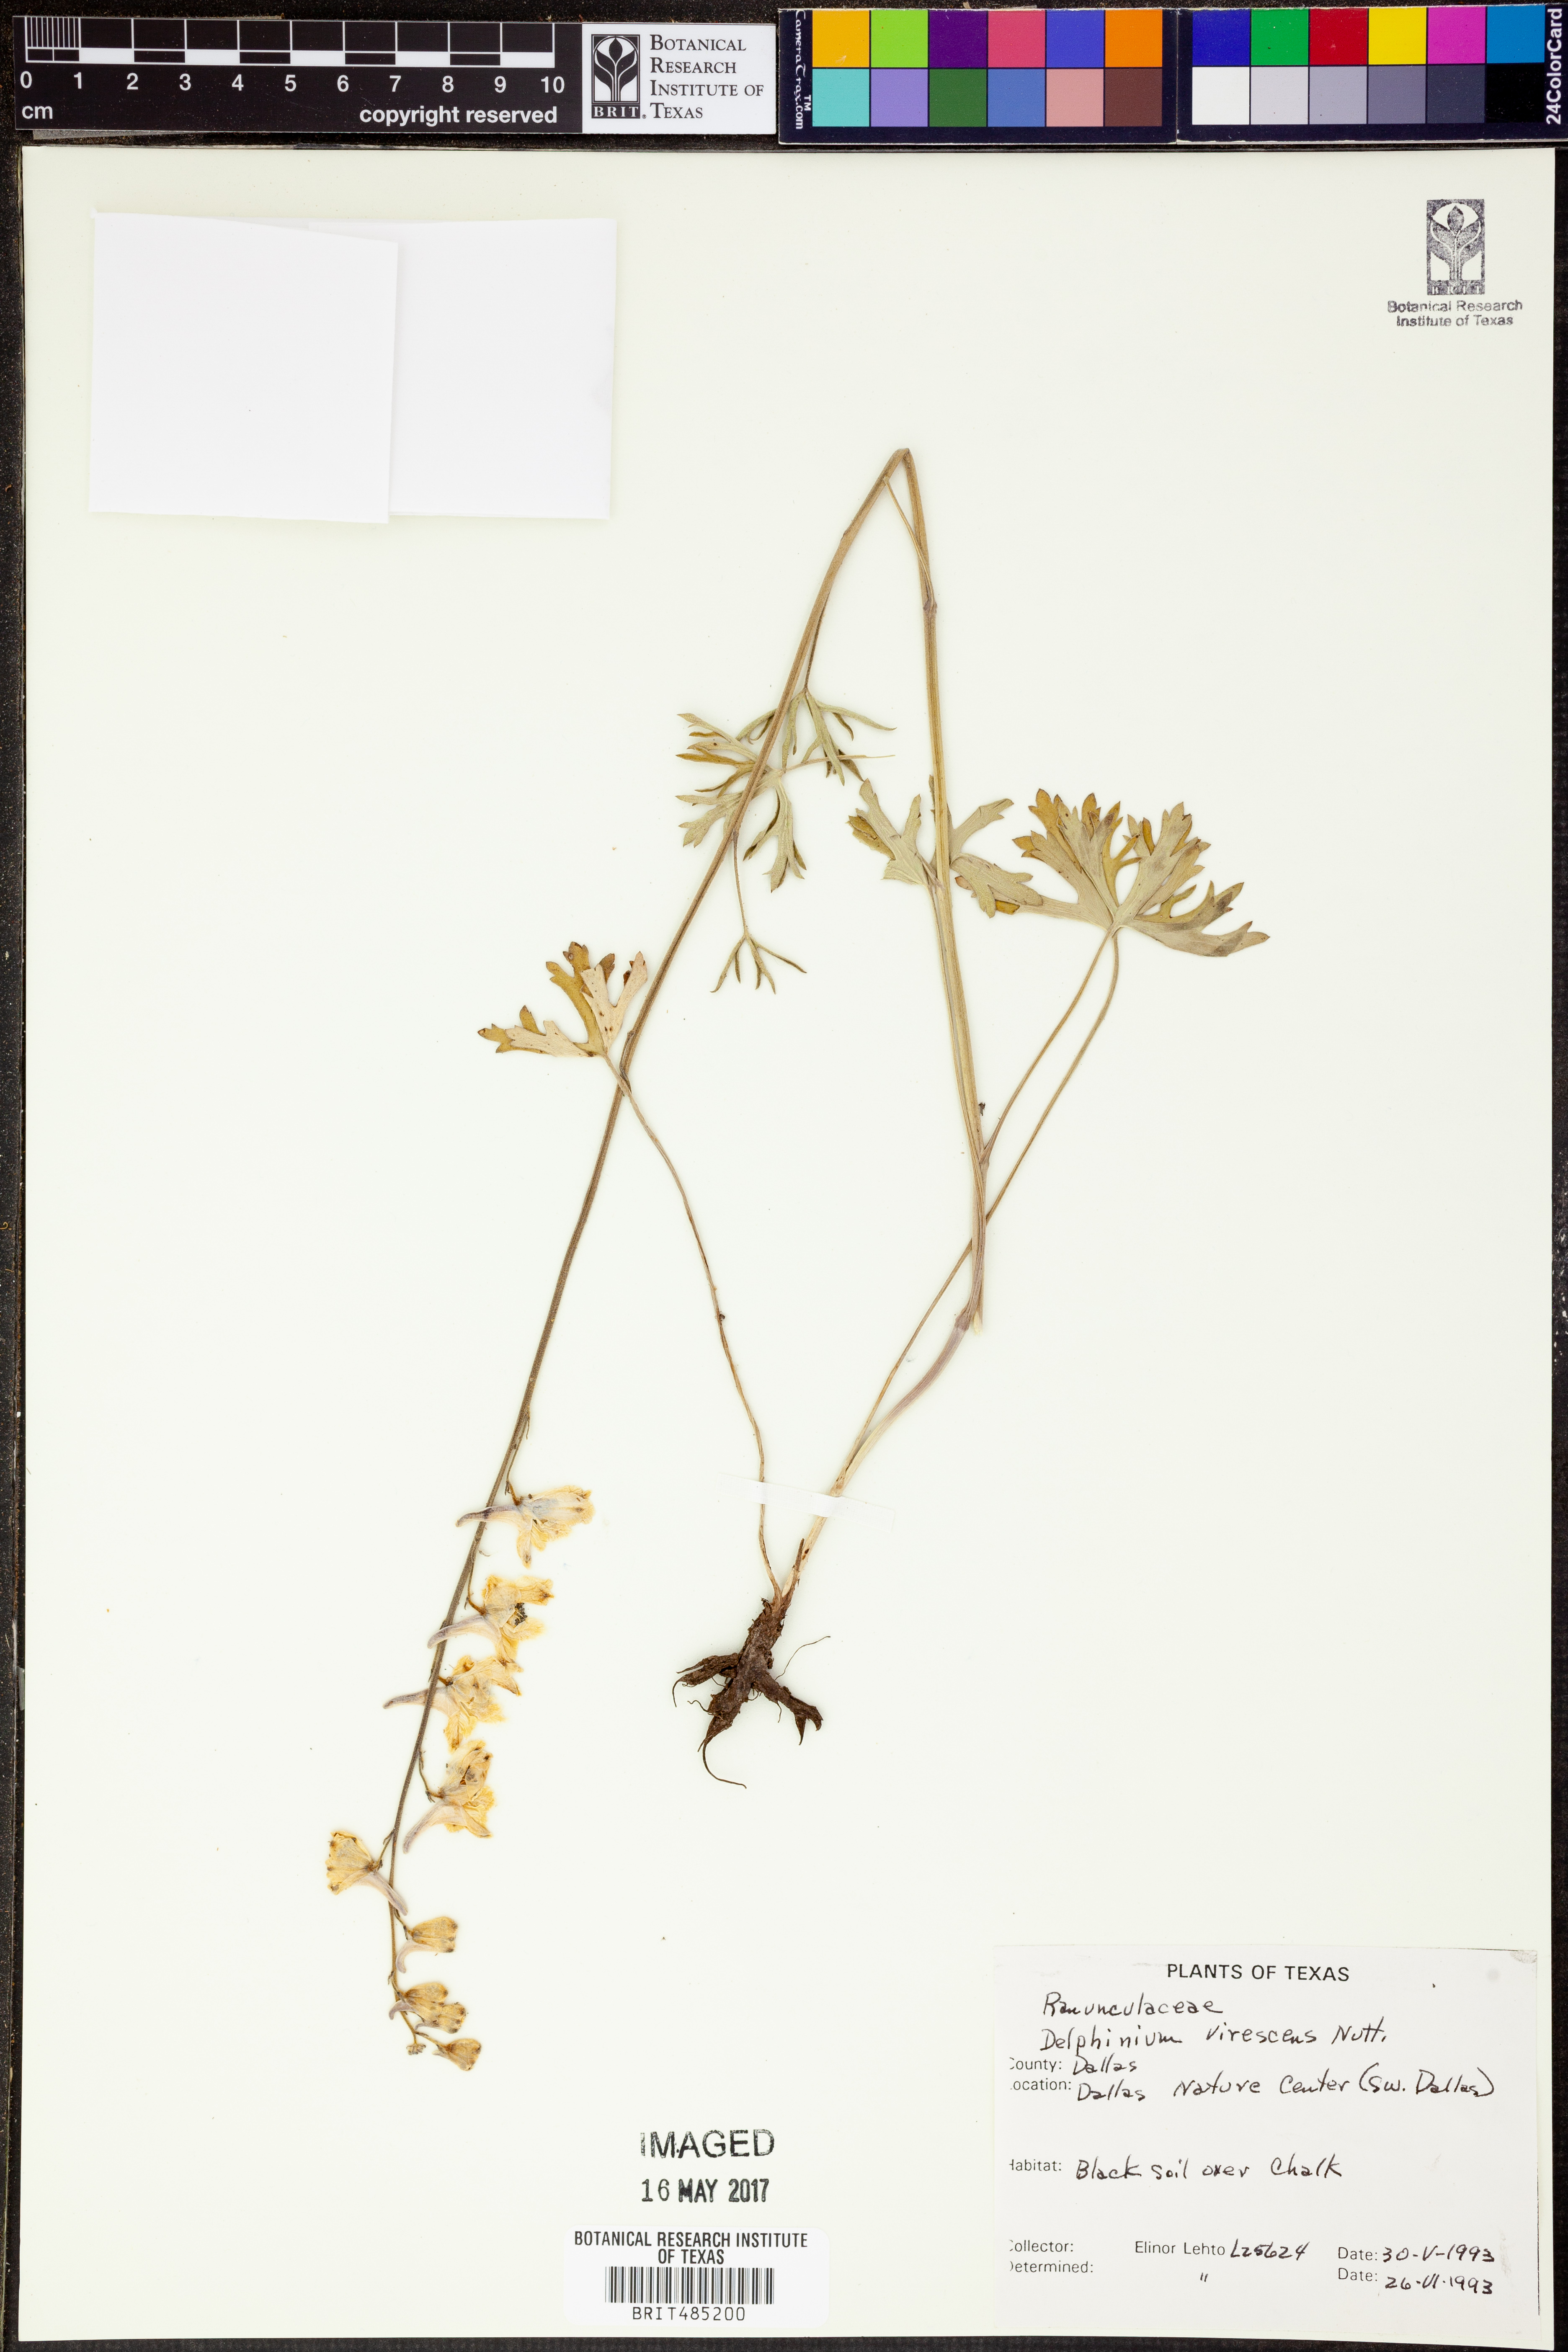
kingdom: Plantae
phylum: Tracheophyta
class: Magnoliopsida
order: Ranunculales
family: Ranunculaceae
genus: Delphinium
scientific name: Delphinium carolinianum
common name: Carolina larkspur
